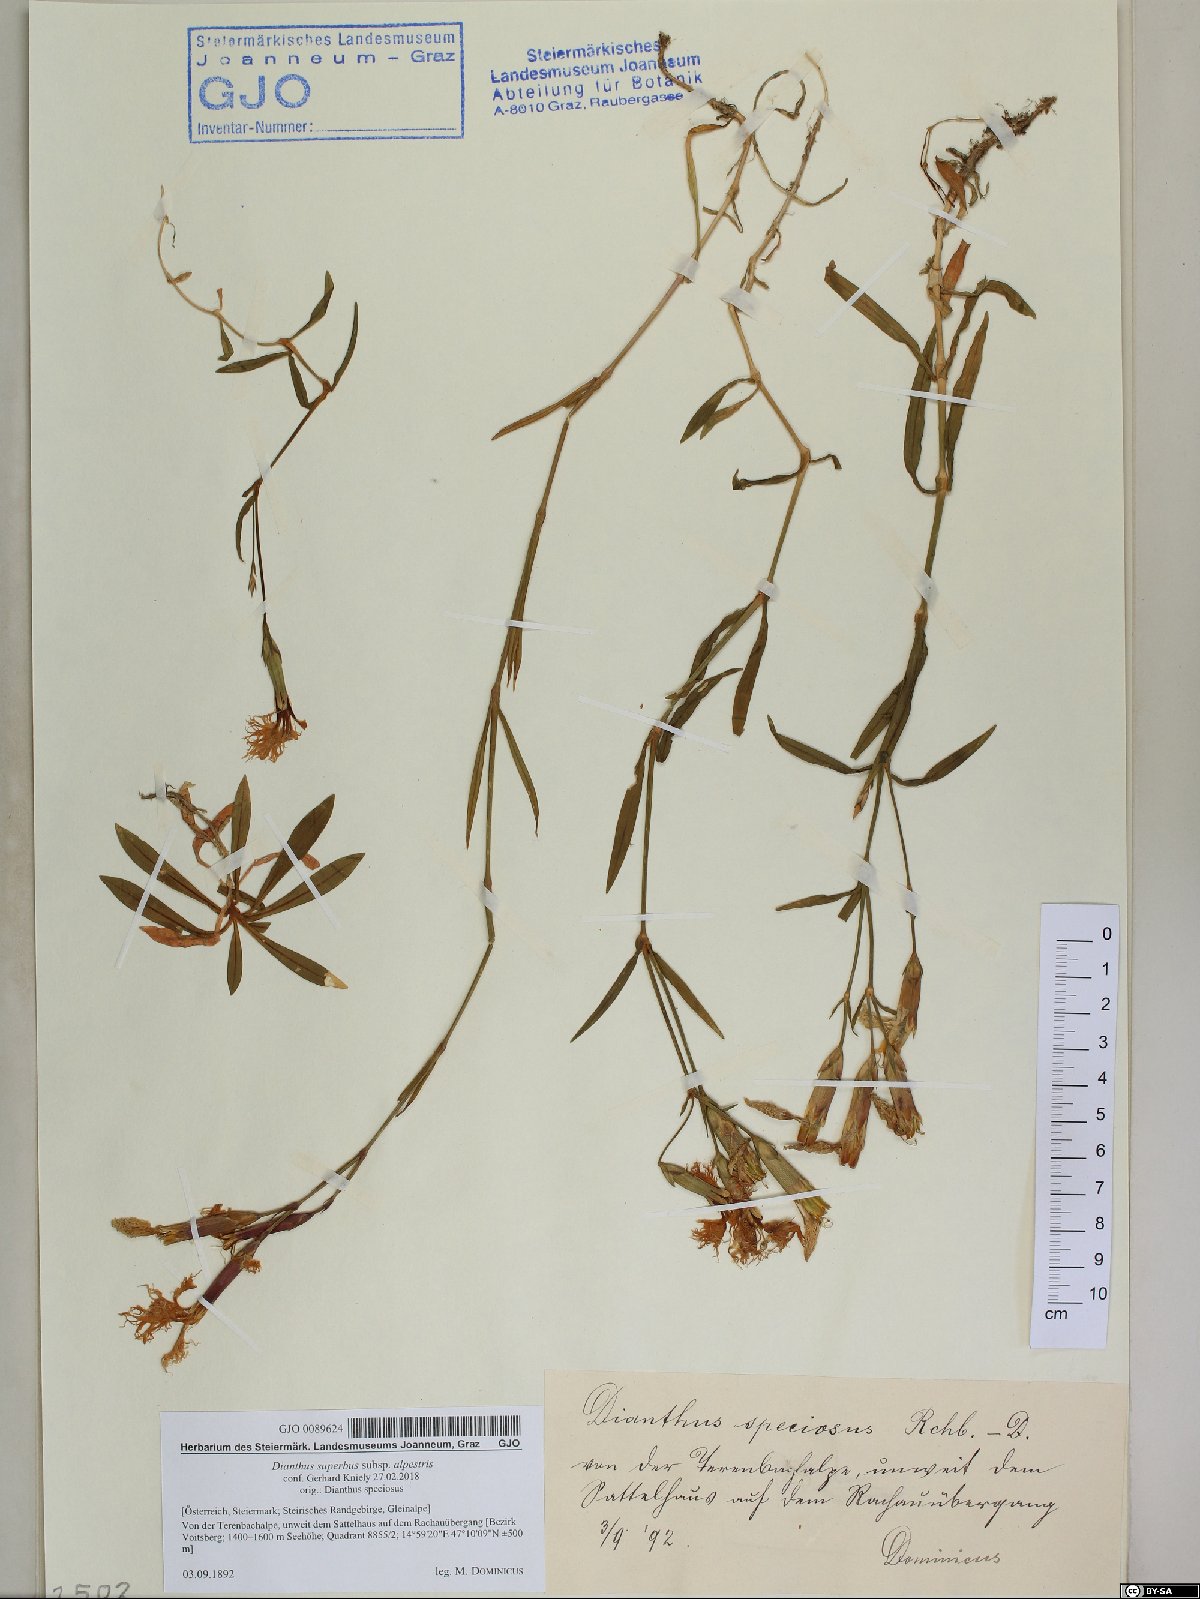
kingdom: Plantae
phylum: Tracheophyta
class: Magnoliopsida
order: Caryophyllales
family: Caryophyllaceae
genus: Dianthus
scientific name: Dianthus superbus
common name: Fringed pink
